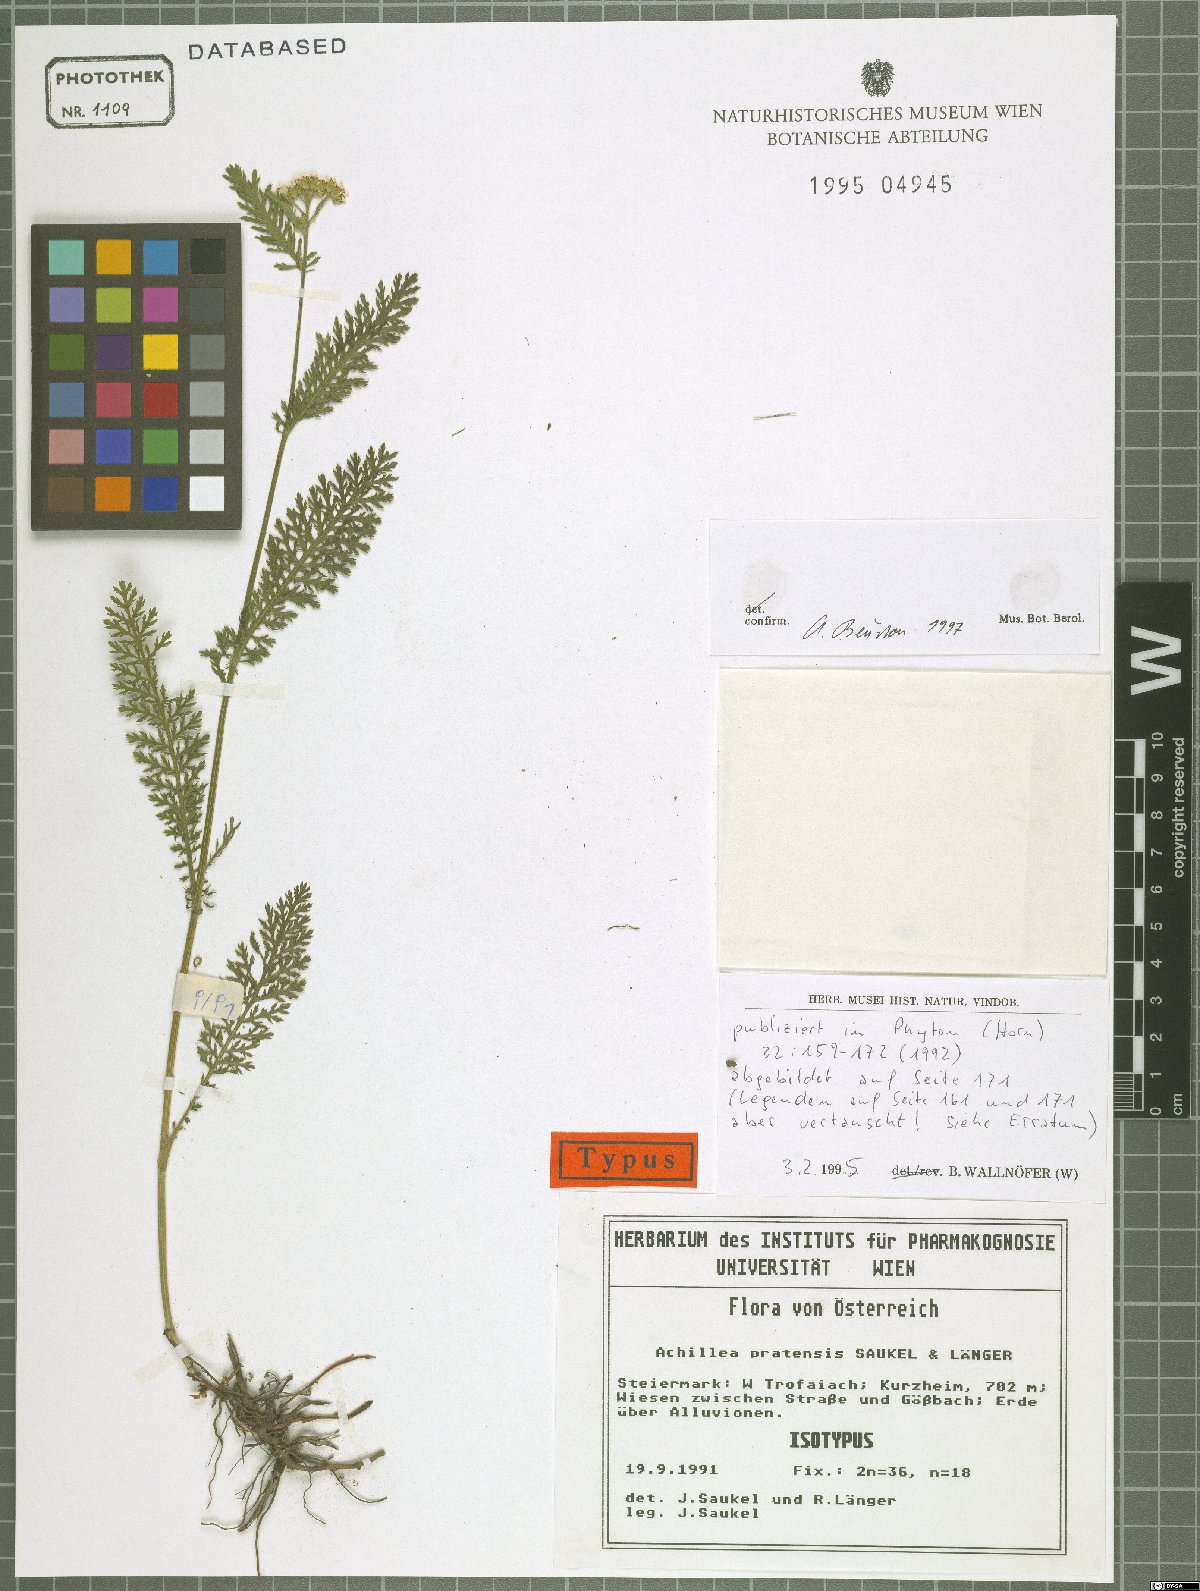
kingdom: Plantae
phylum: Tracheophyta
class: Magnoliopsida
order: Asterales
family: Asteraceae
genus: Achillea
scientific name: Achillea pratensis
